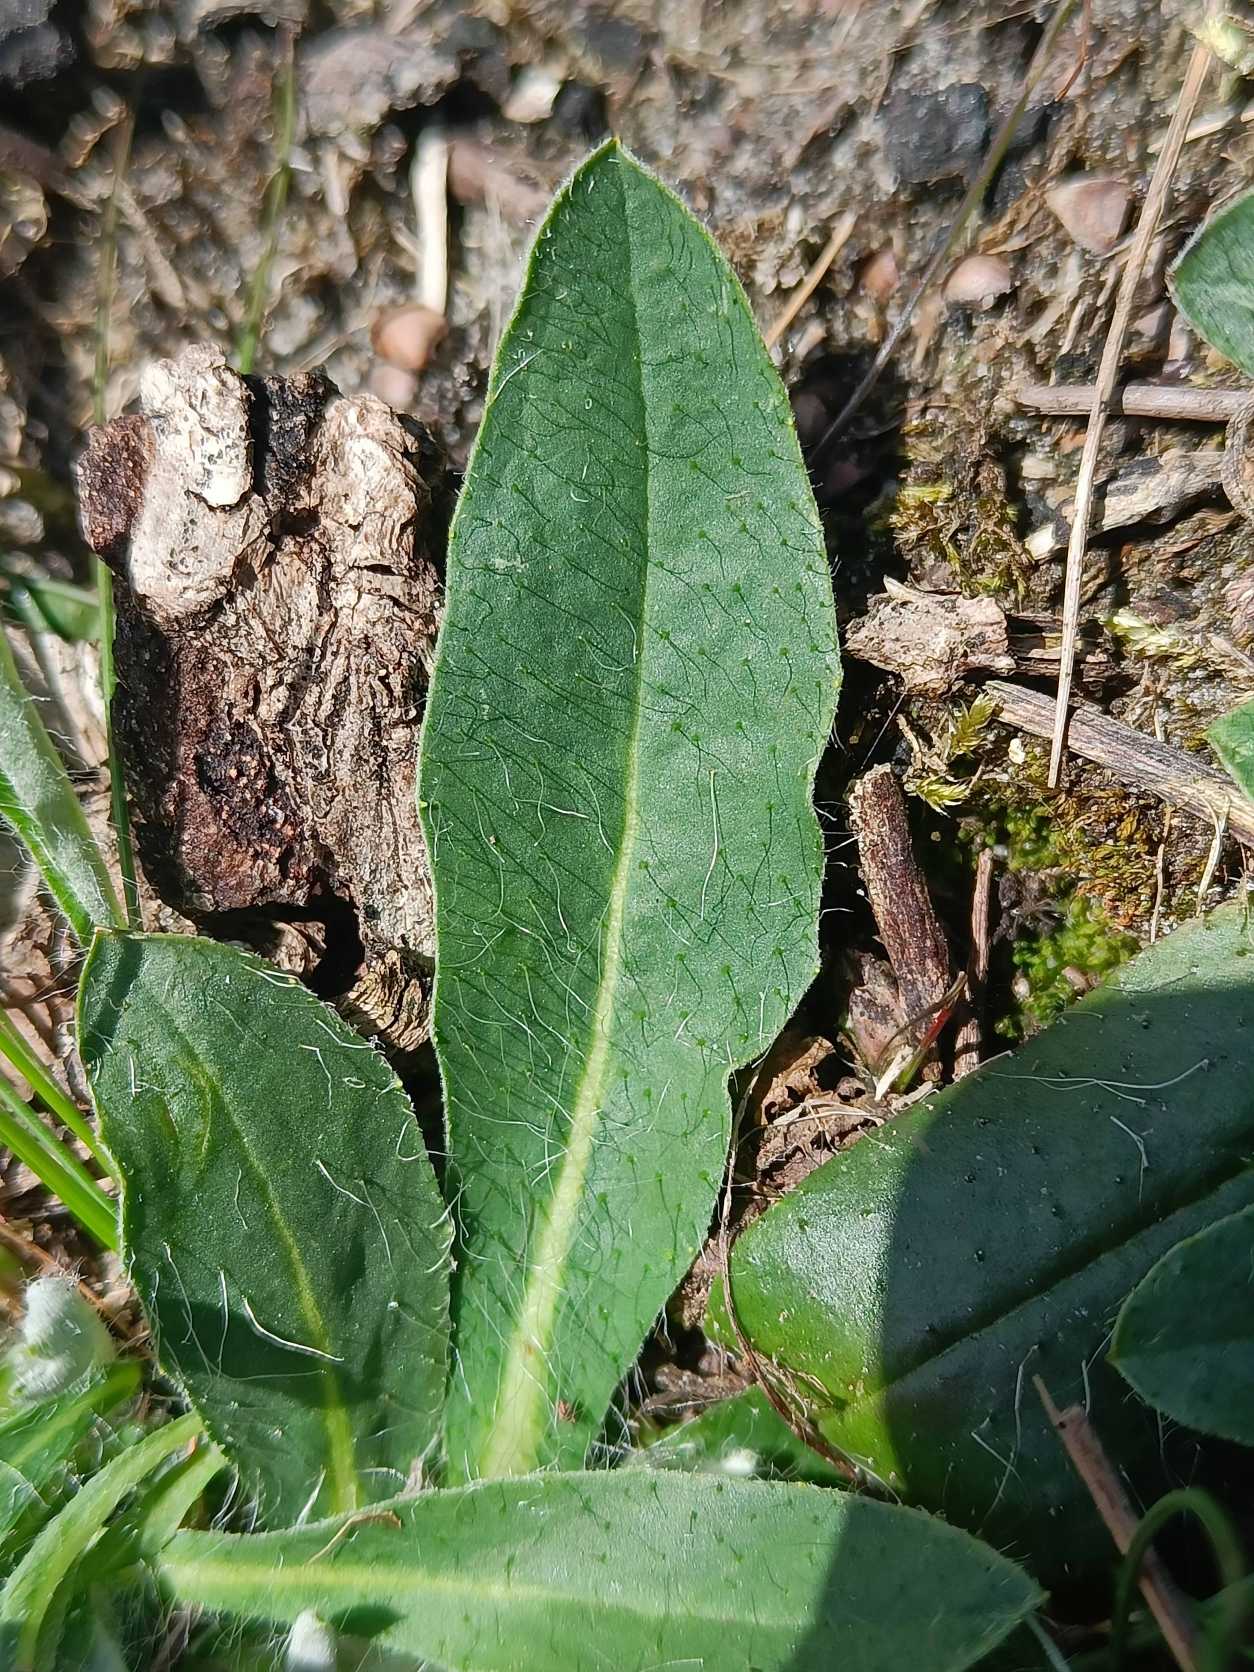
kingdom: Plantae
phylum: Tracheophyta
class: Magnoliopsida
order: Asterales
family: Asteraceae
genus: Pilosella
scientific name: Pilosella officinarum
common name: Håret høgeurt
